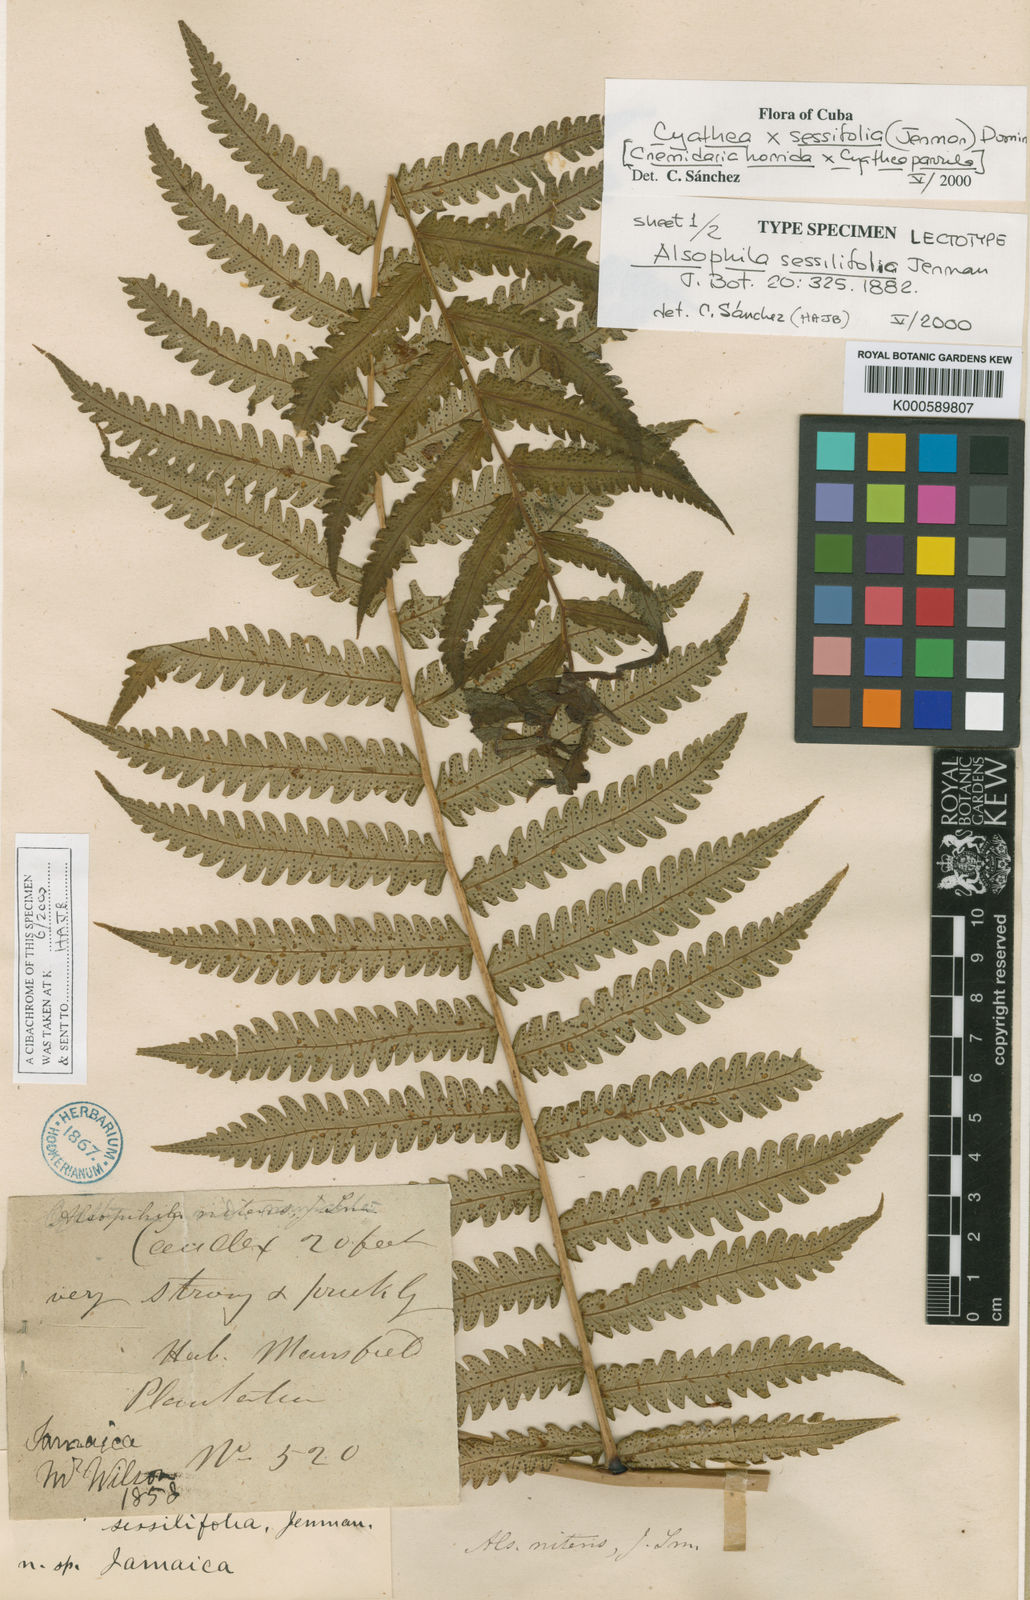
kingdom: Plantae
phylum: Tracheophyta
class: Polypodiopsida
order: Cyatheales
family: Cyatheaceae
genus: Cyathea
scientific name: Cyathea
